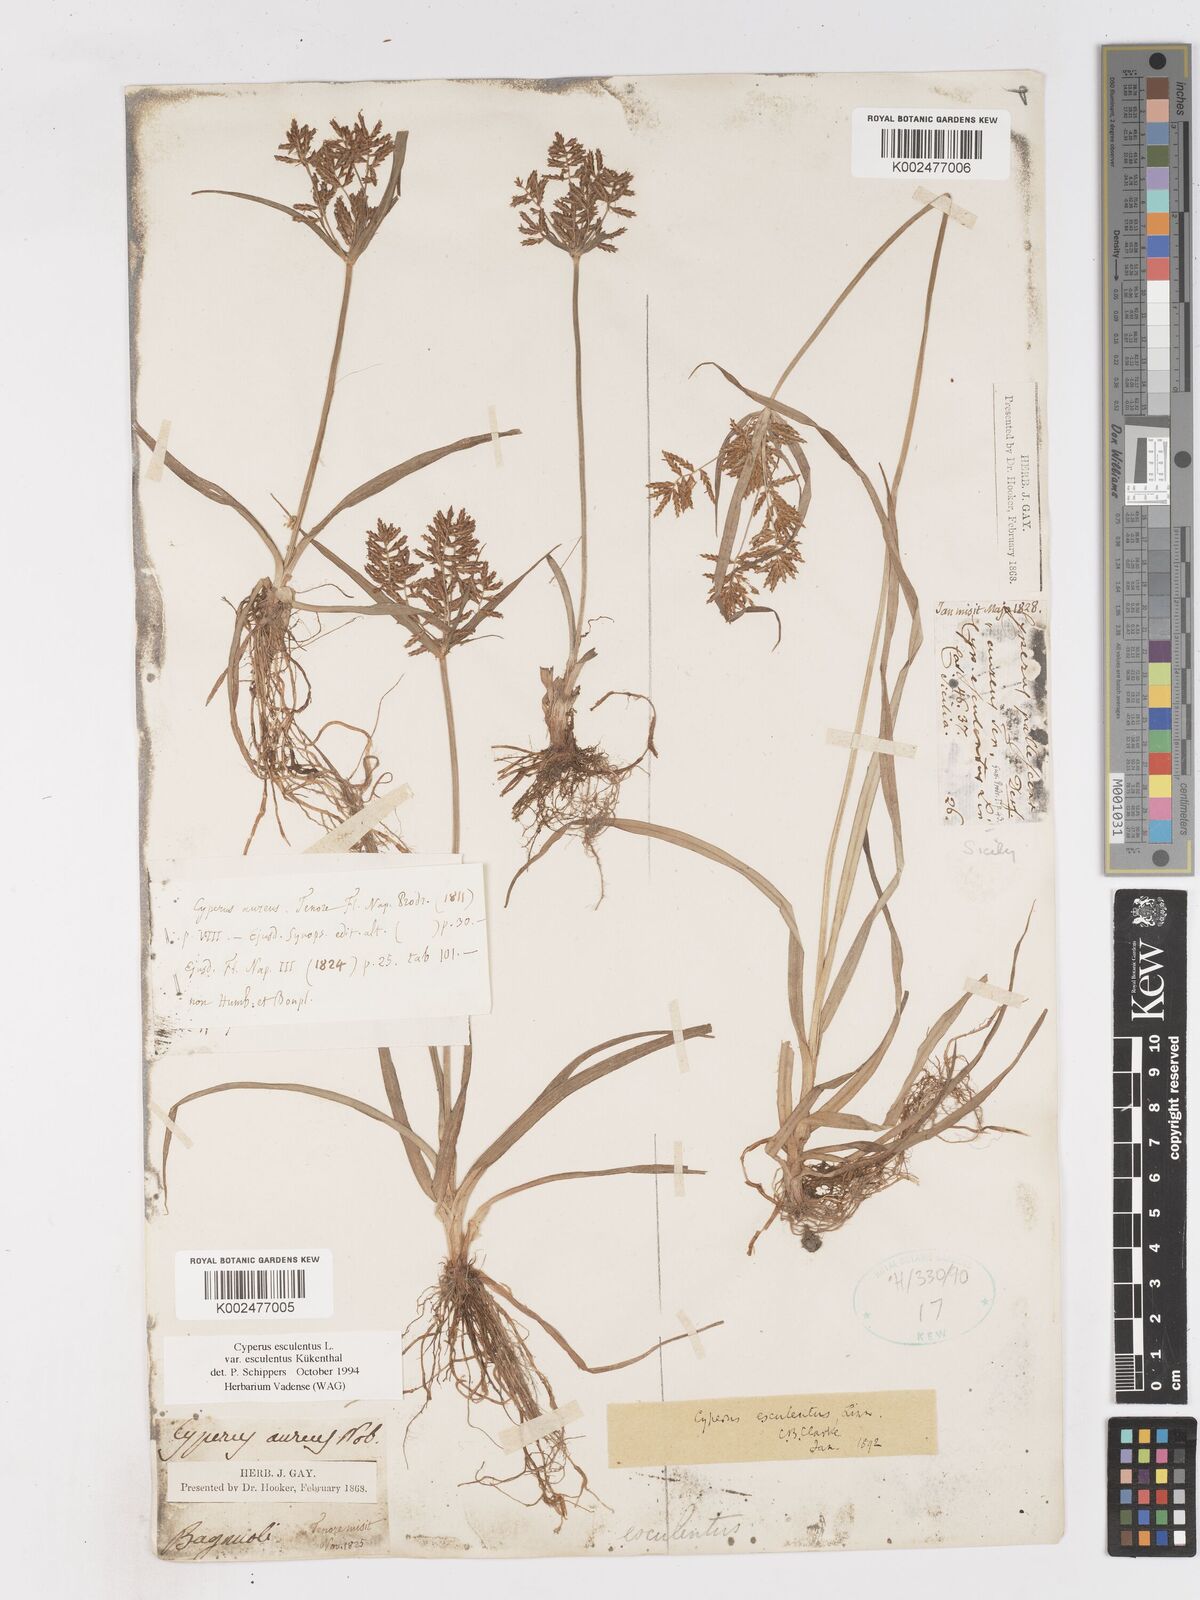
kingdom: Plantae
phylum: Tracheophyta
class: Liliopsida
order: Poales
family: Cyperaceae
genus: Cyperus
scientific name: Cyperus esculentus
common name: Yellow nutsedge
